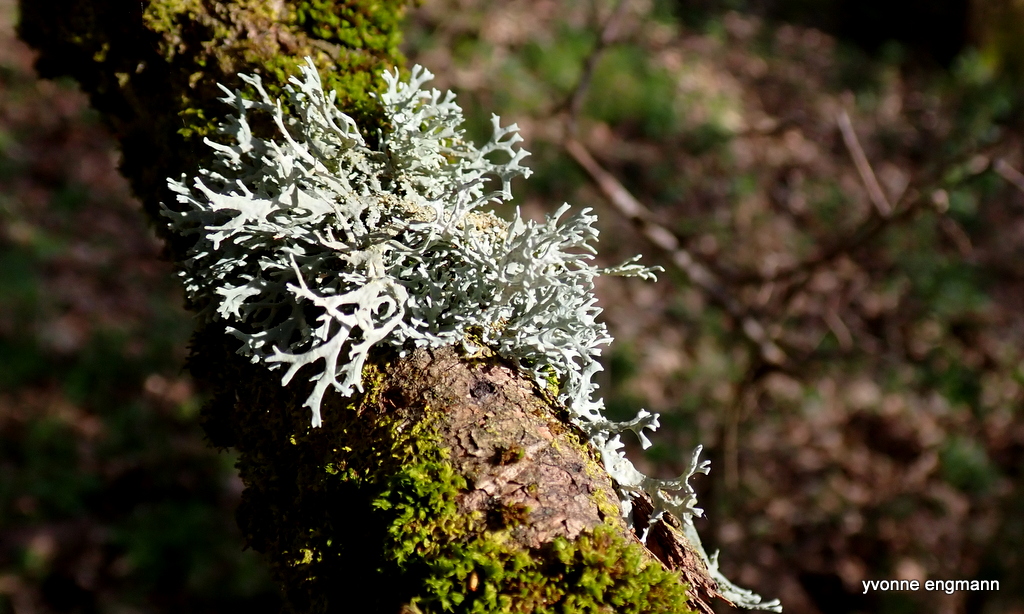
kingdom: Fungi
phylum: Ascomycota
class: Lecanoromycetes
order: Lecanorales
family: Parmeliaceae
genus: Evernia
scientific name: Evernia prunastri
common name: almindelig slåenlav
